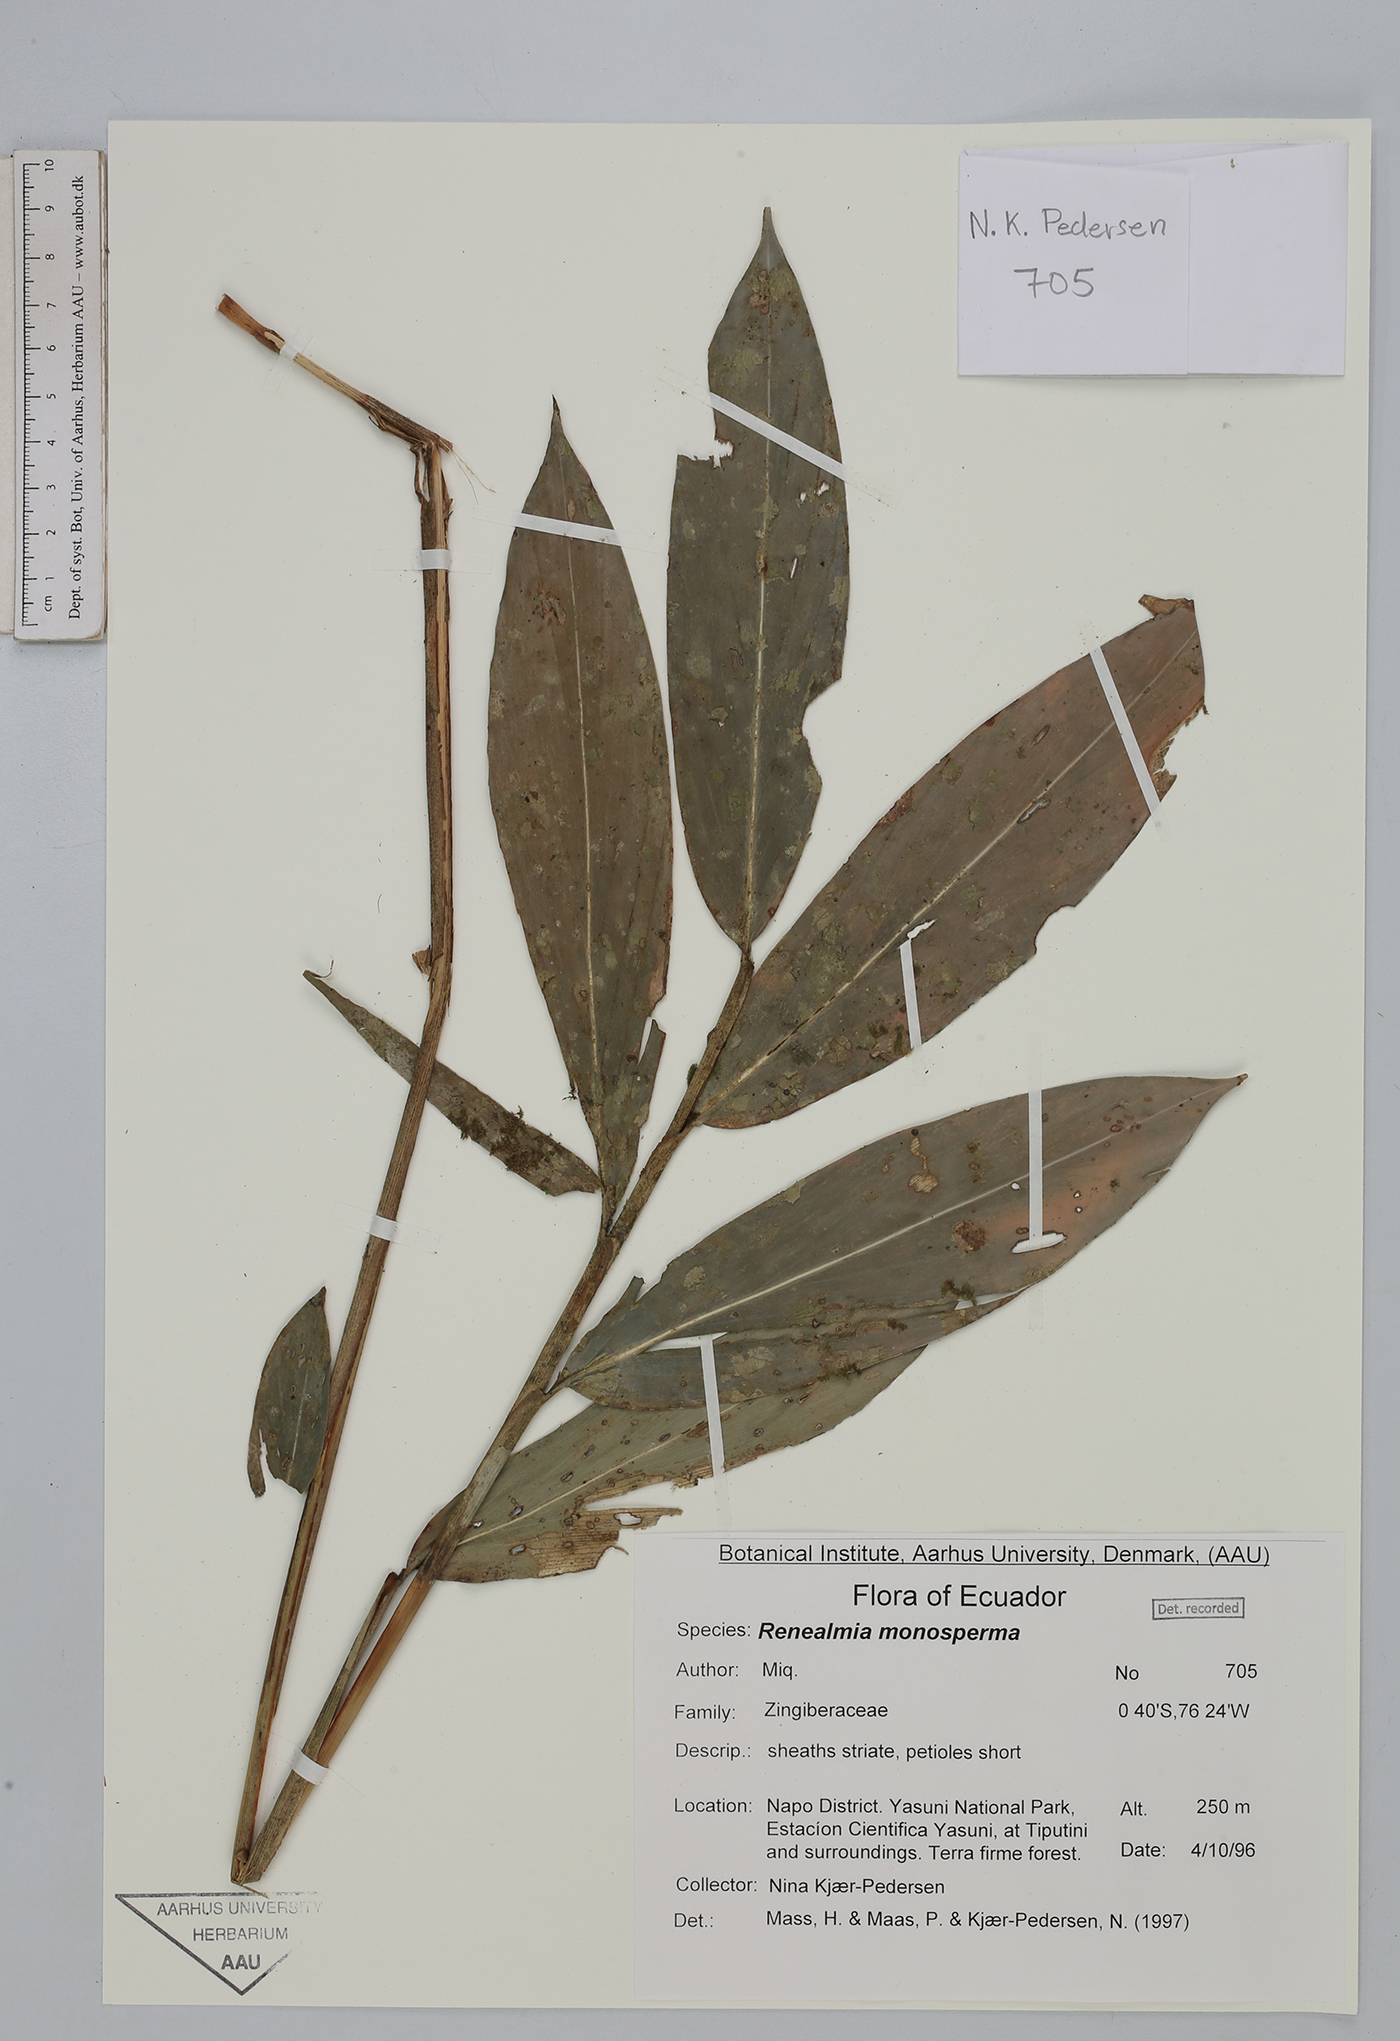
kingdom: Plantae
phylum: Tracheophyta
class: Liliopsida
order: Zingiberales
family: Zingiberaceae
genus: Renealmia
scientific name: Renealmia monosperma
